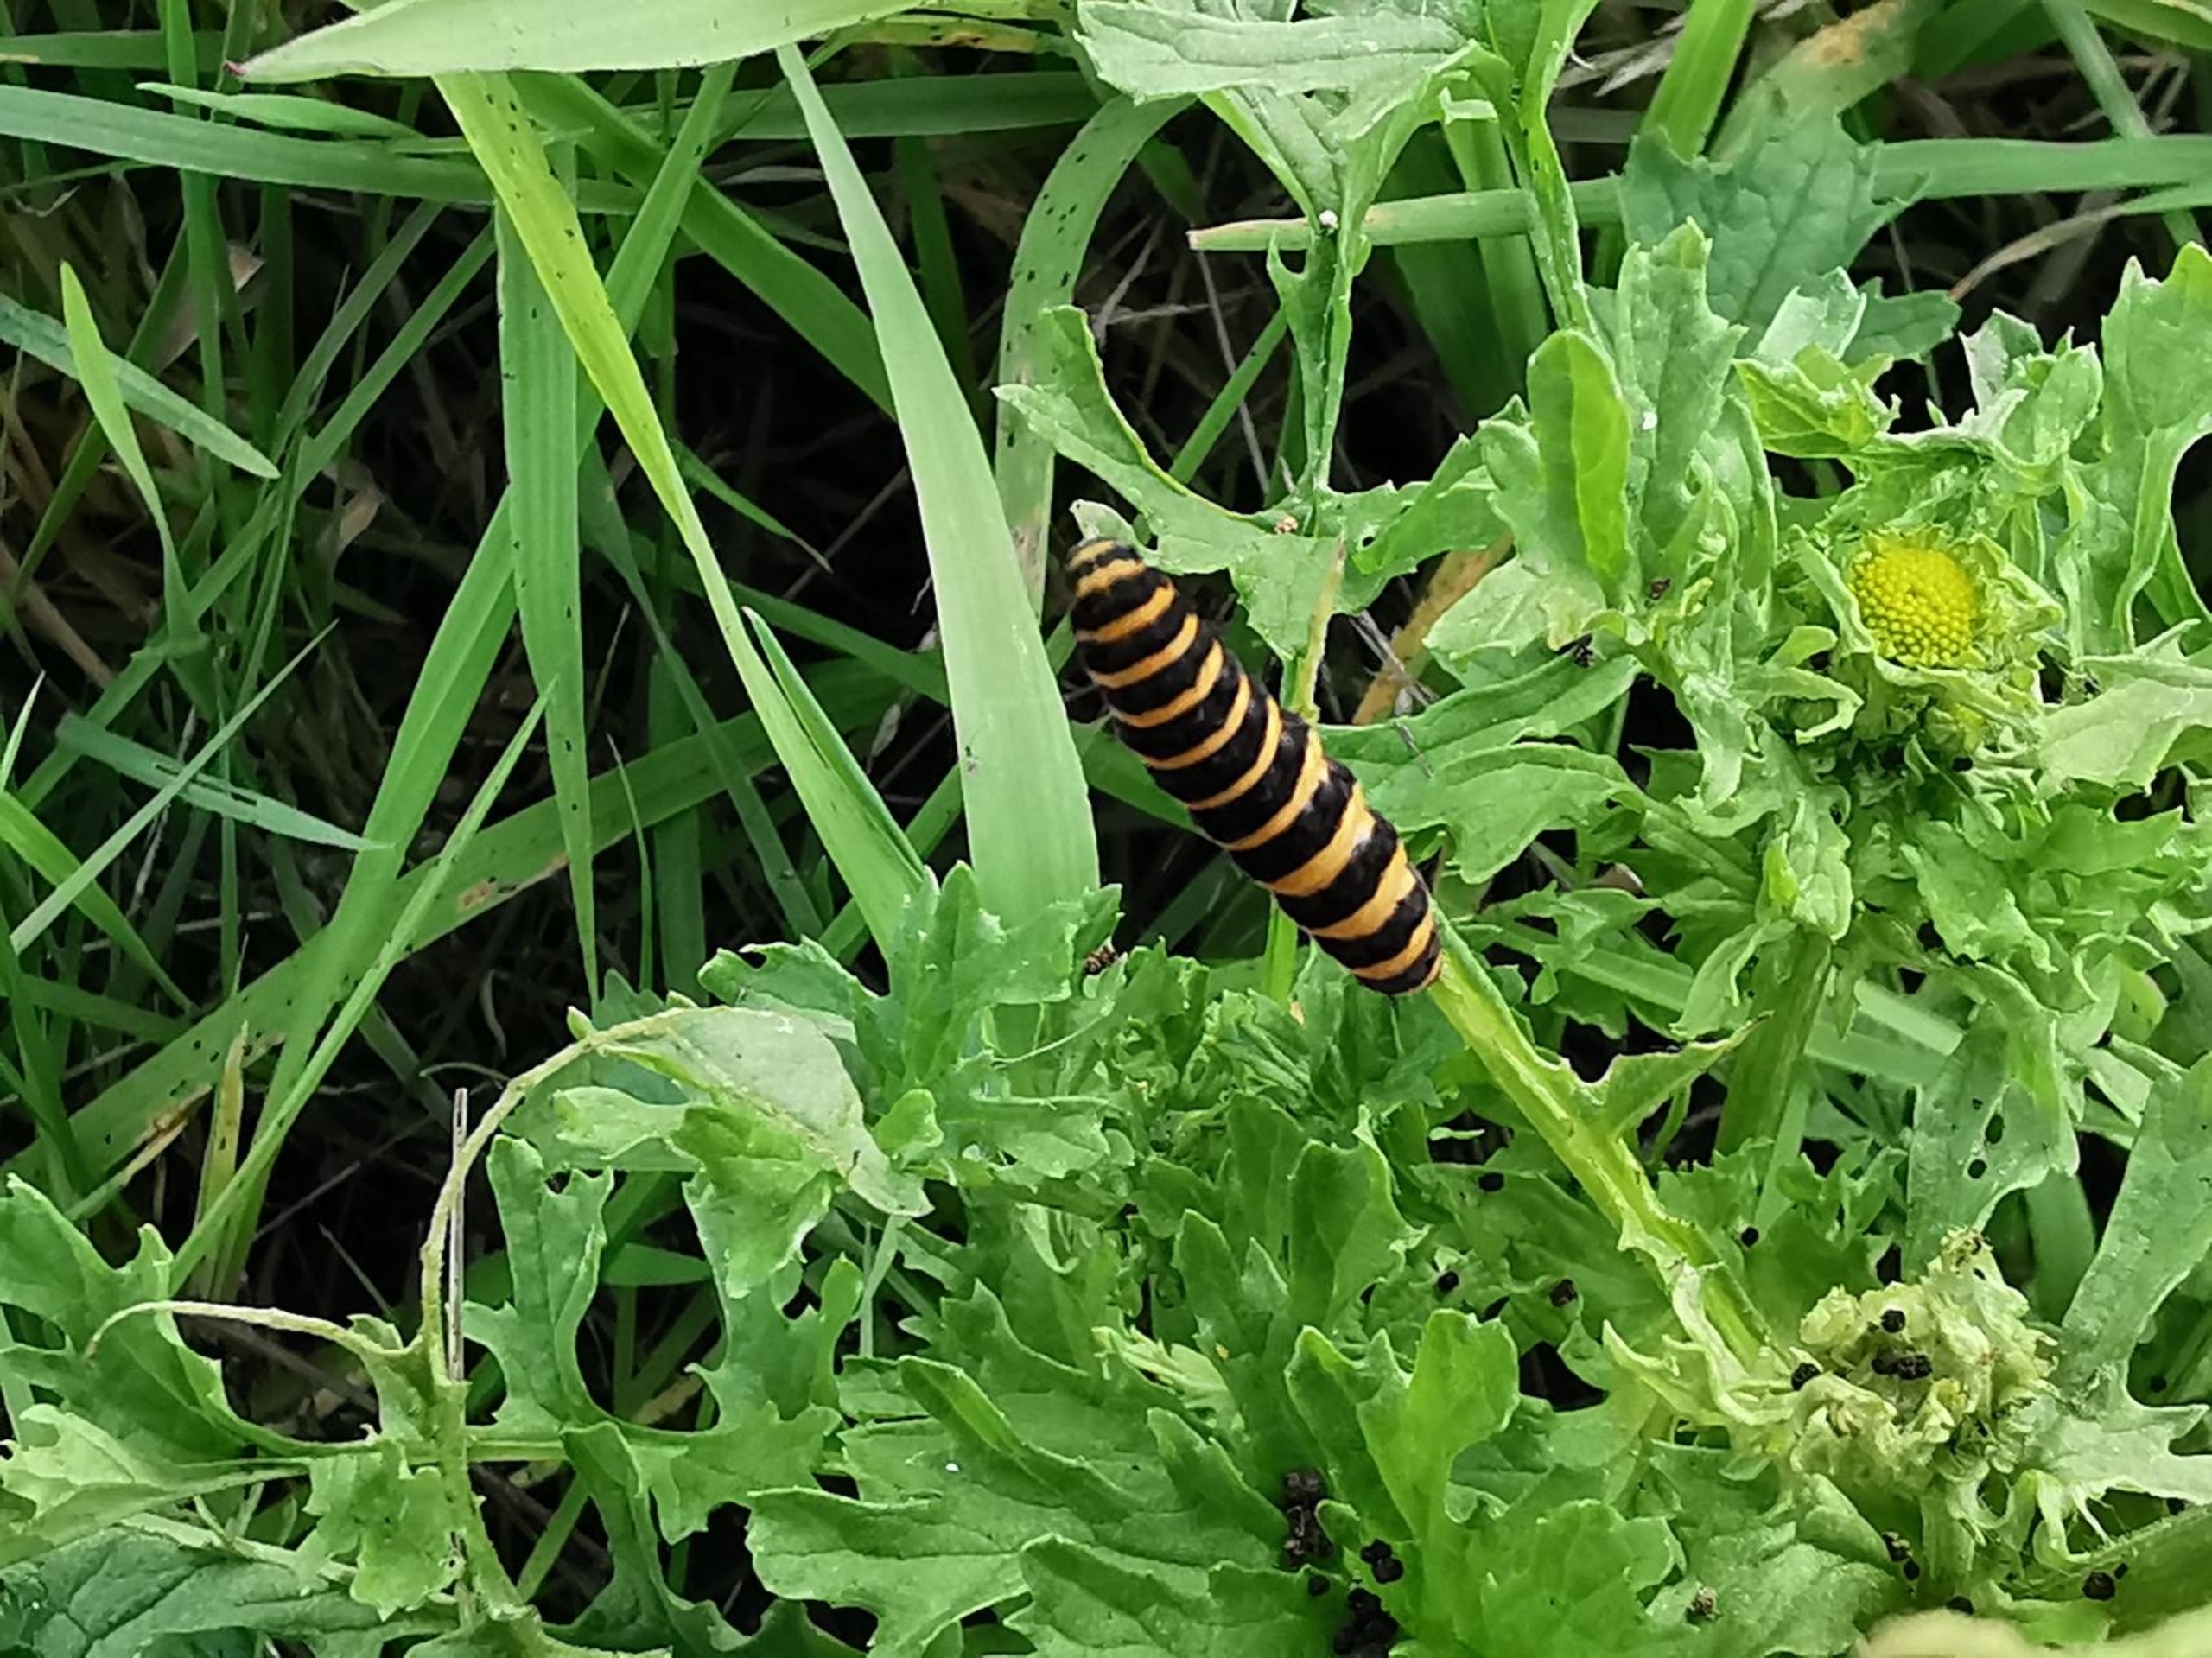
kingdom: Animalia
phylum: Arthropoda
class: Insecta
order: Lepidoptera
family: Erebidae
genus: Tyria
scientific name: Tyria jacobaeae
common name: Blodplet
